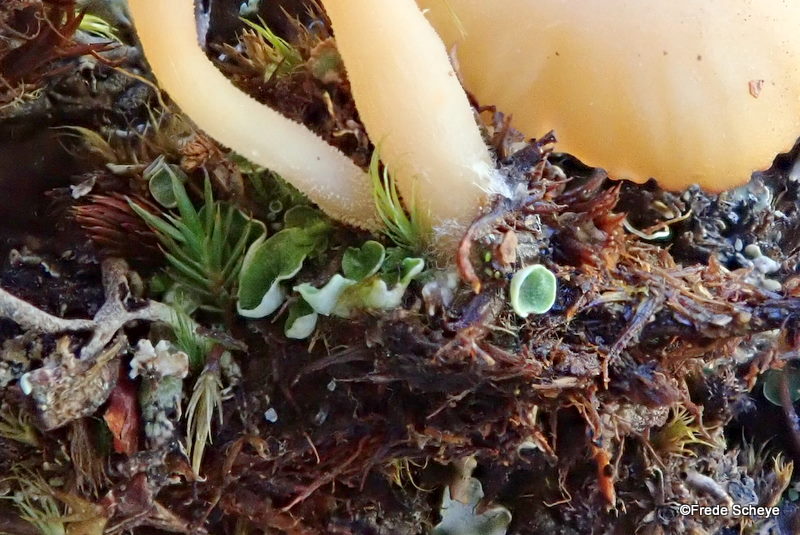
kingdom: Fungi
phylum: Basidiomycota
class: Agaricomycetes
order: Agaricales
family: Hygrophoraceae
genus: Lichenomphalia
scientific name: Lichenomphalia hudsoniana
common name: thallus-lavhat
